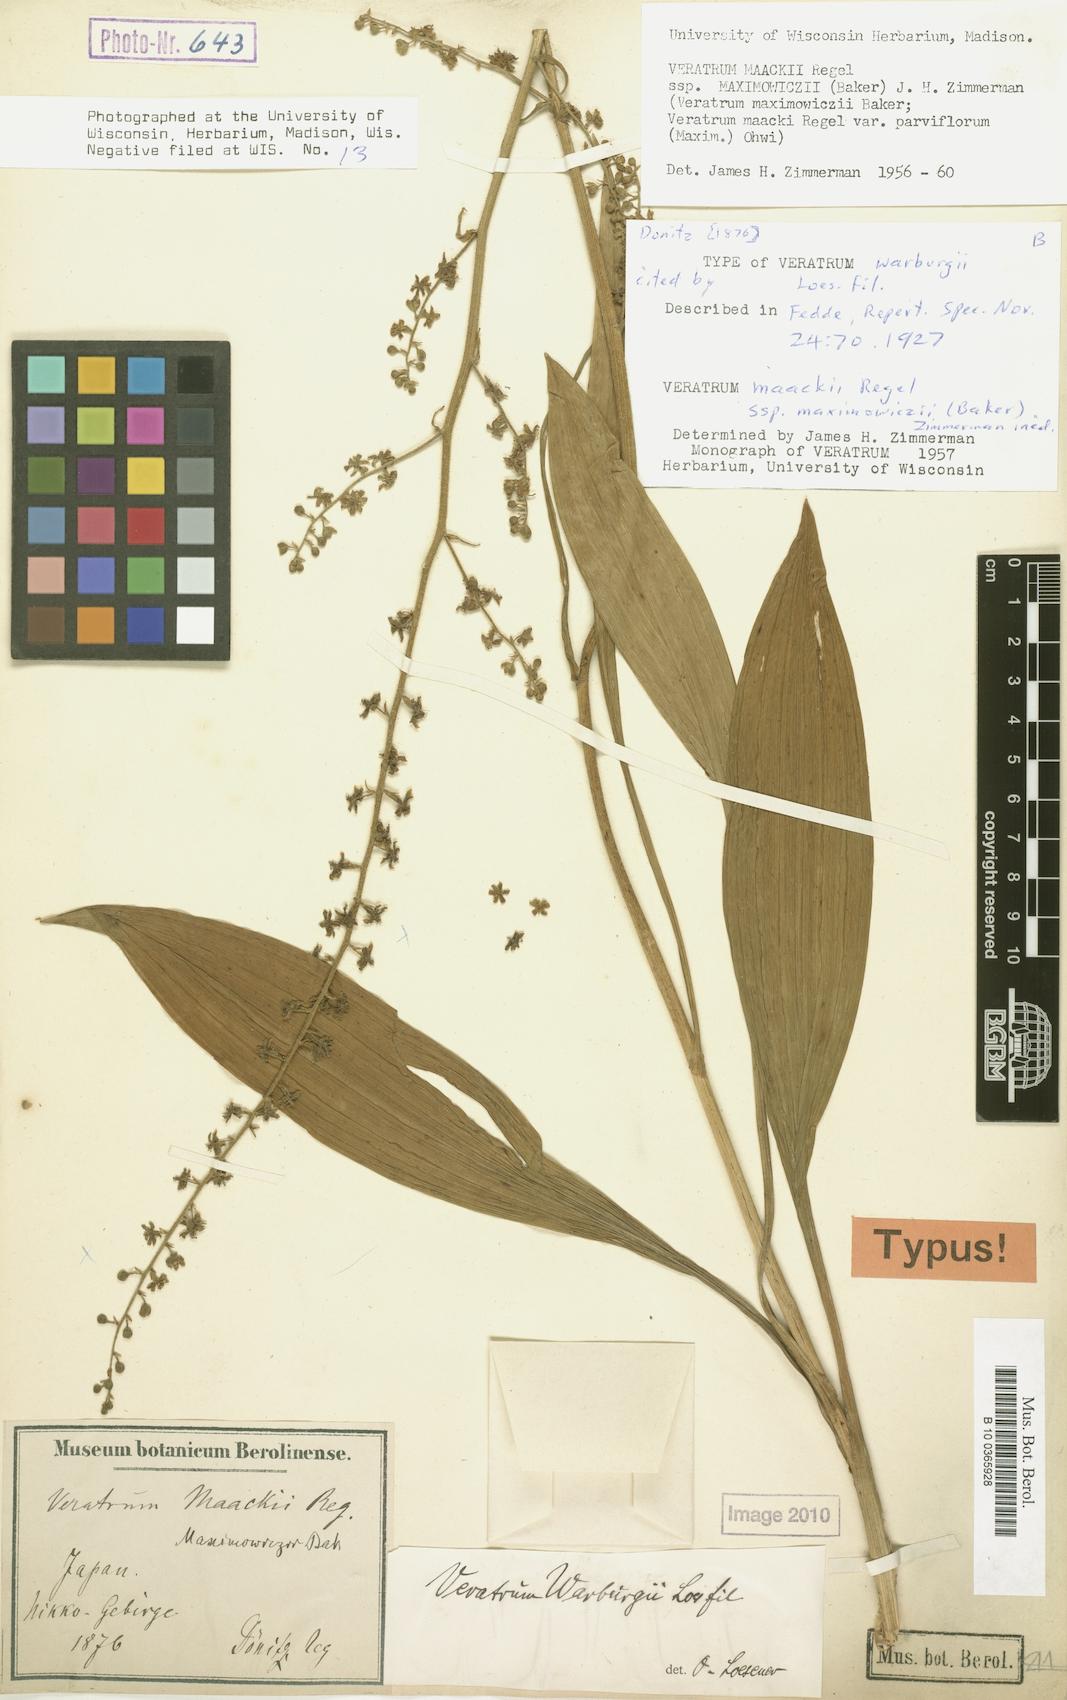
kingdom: Plantae
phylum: Tracheophyta
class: Liliopsida
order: Liliales
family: Melanthiaceae
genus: Veratrum
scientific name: Veratrum maackii
